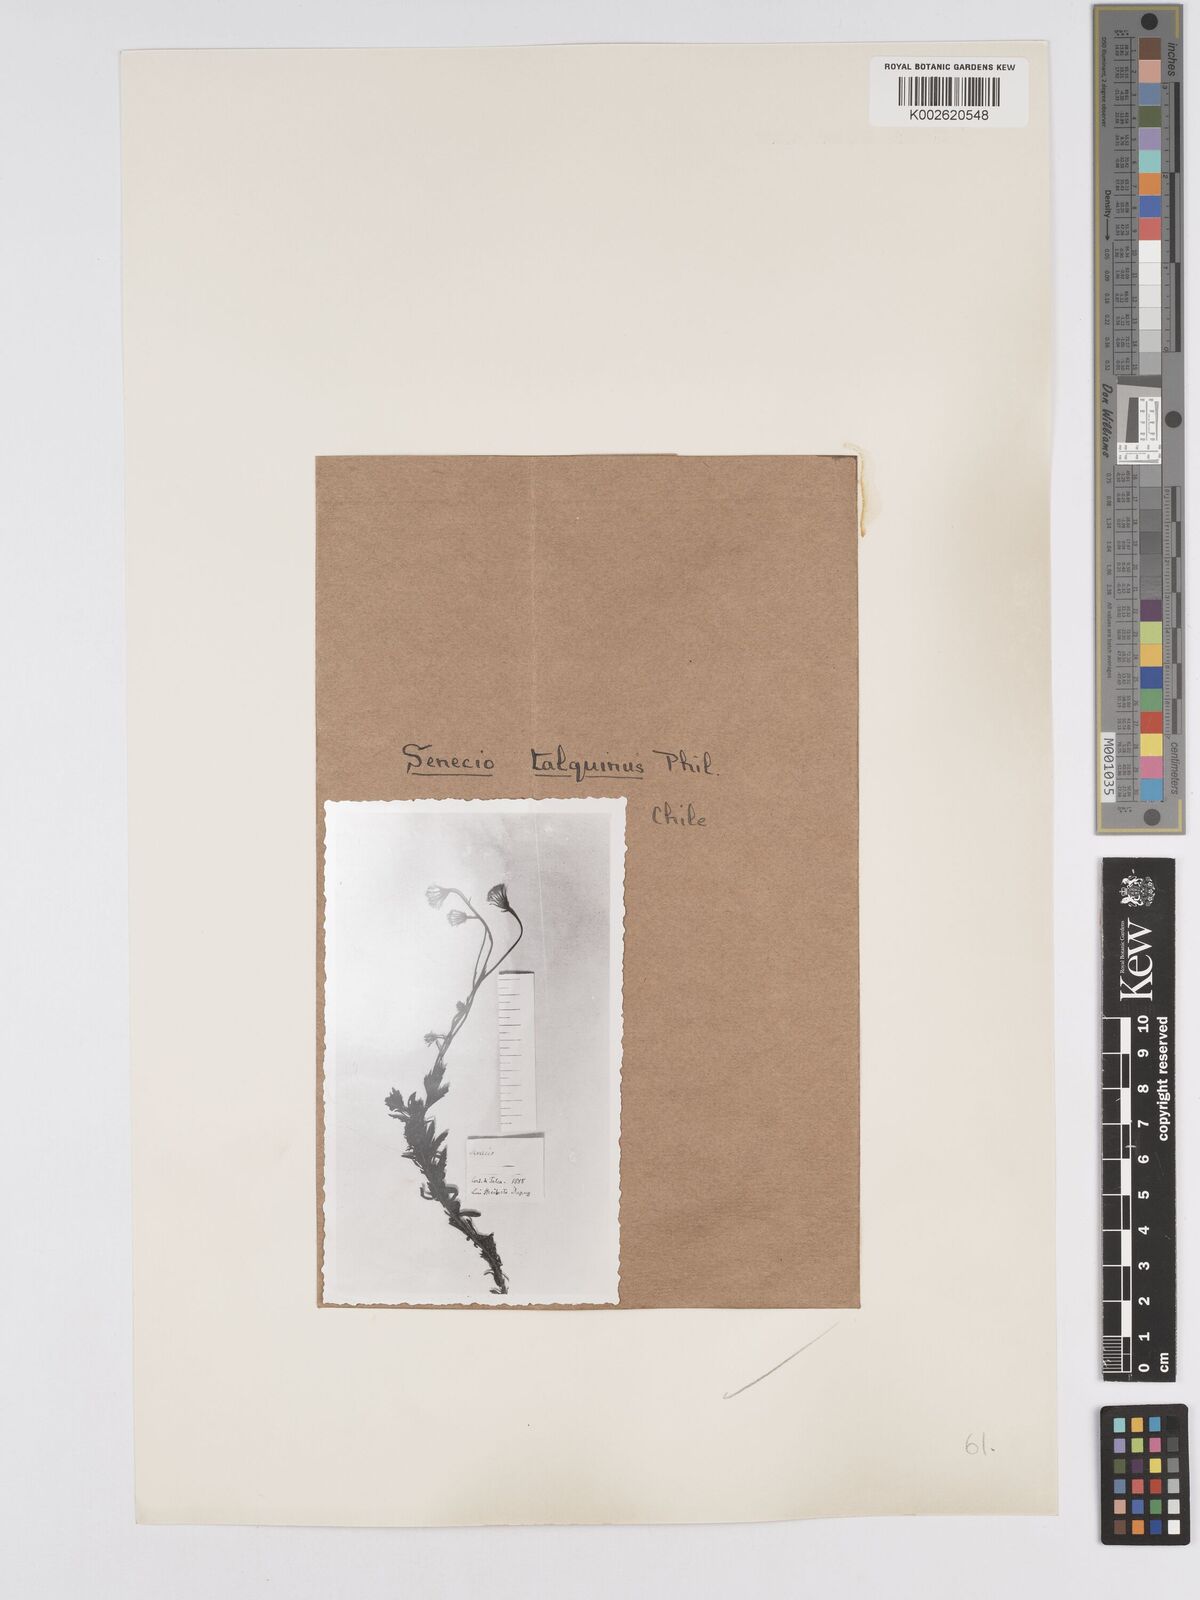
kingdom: Plantae
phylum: Tracheophyta
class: Magnoliopsida
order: Asterales
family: Asteraceae
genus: Senecio
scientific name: Senecio talquinus
